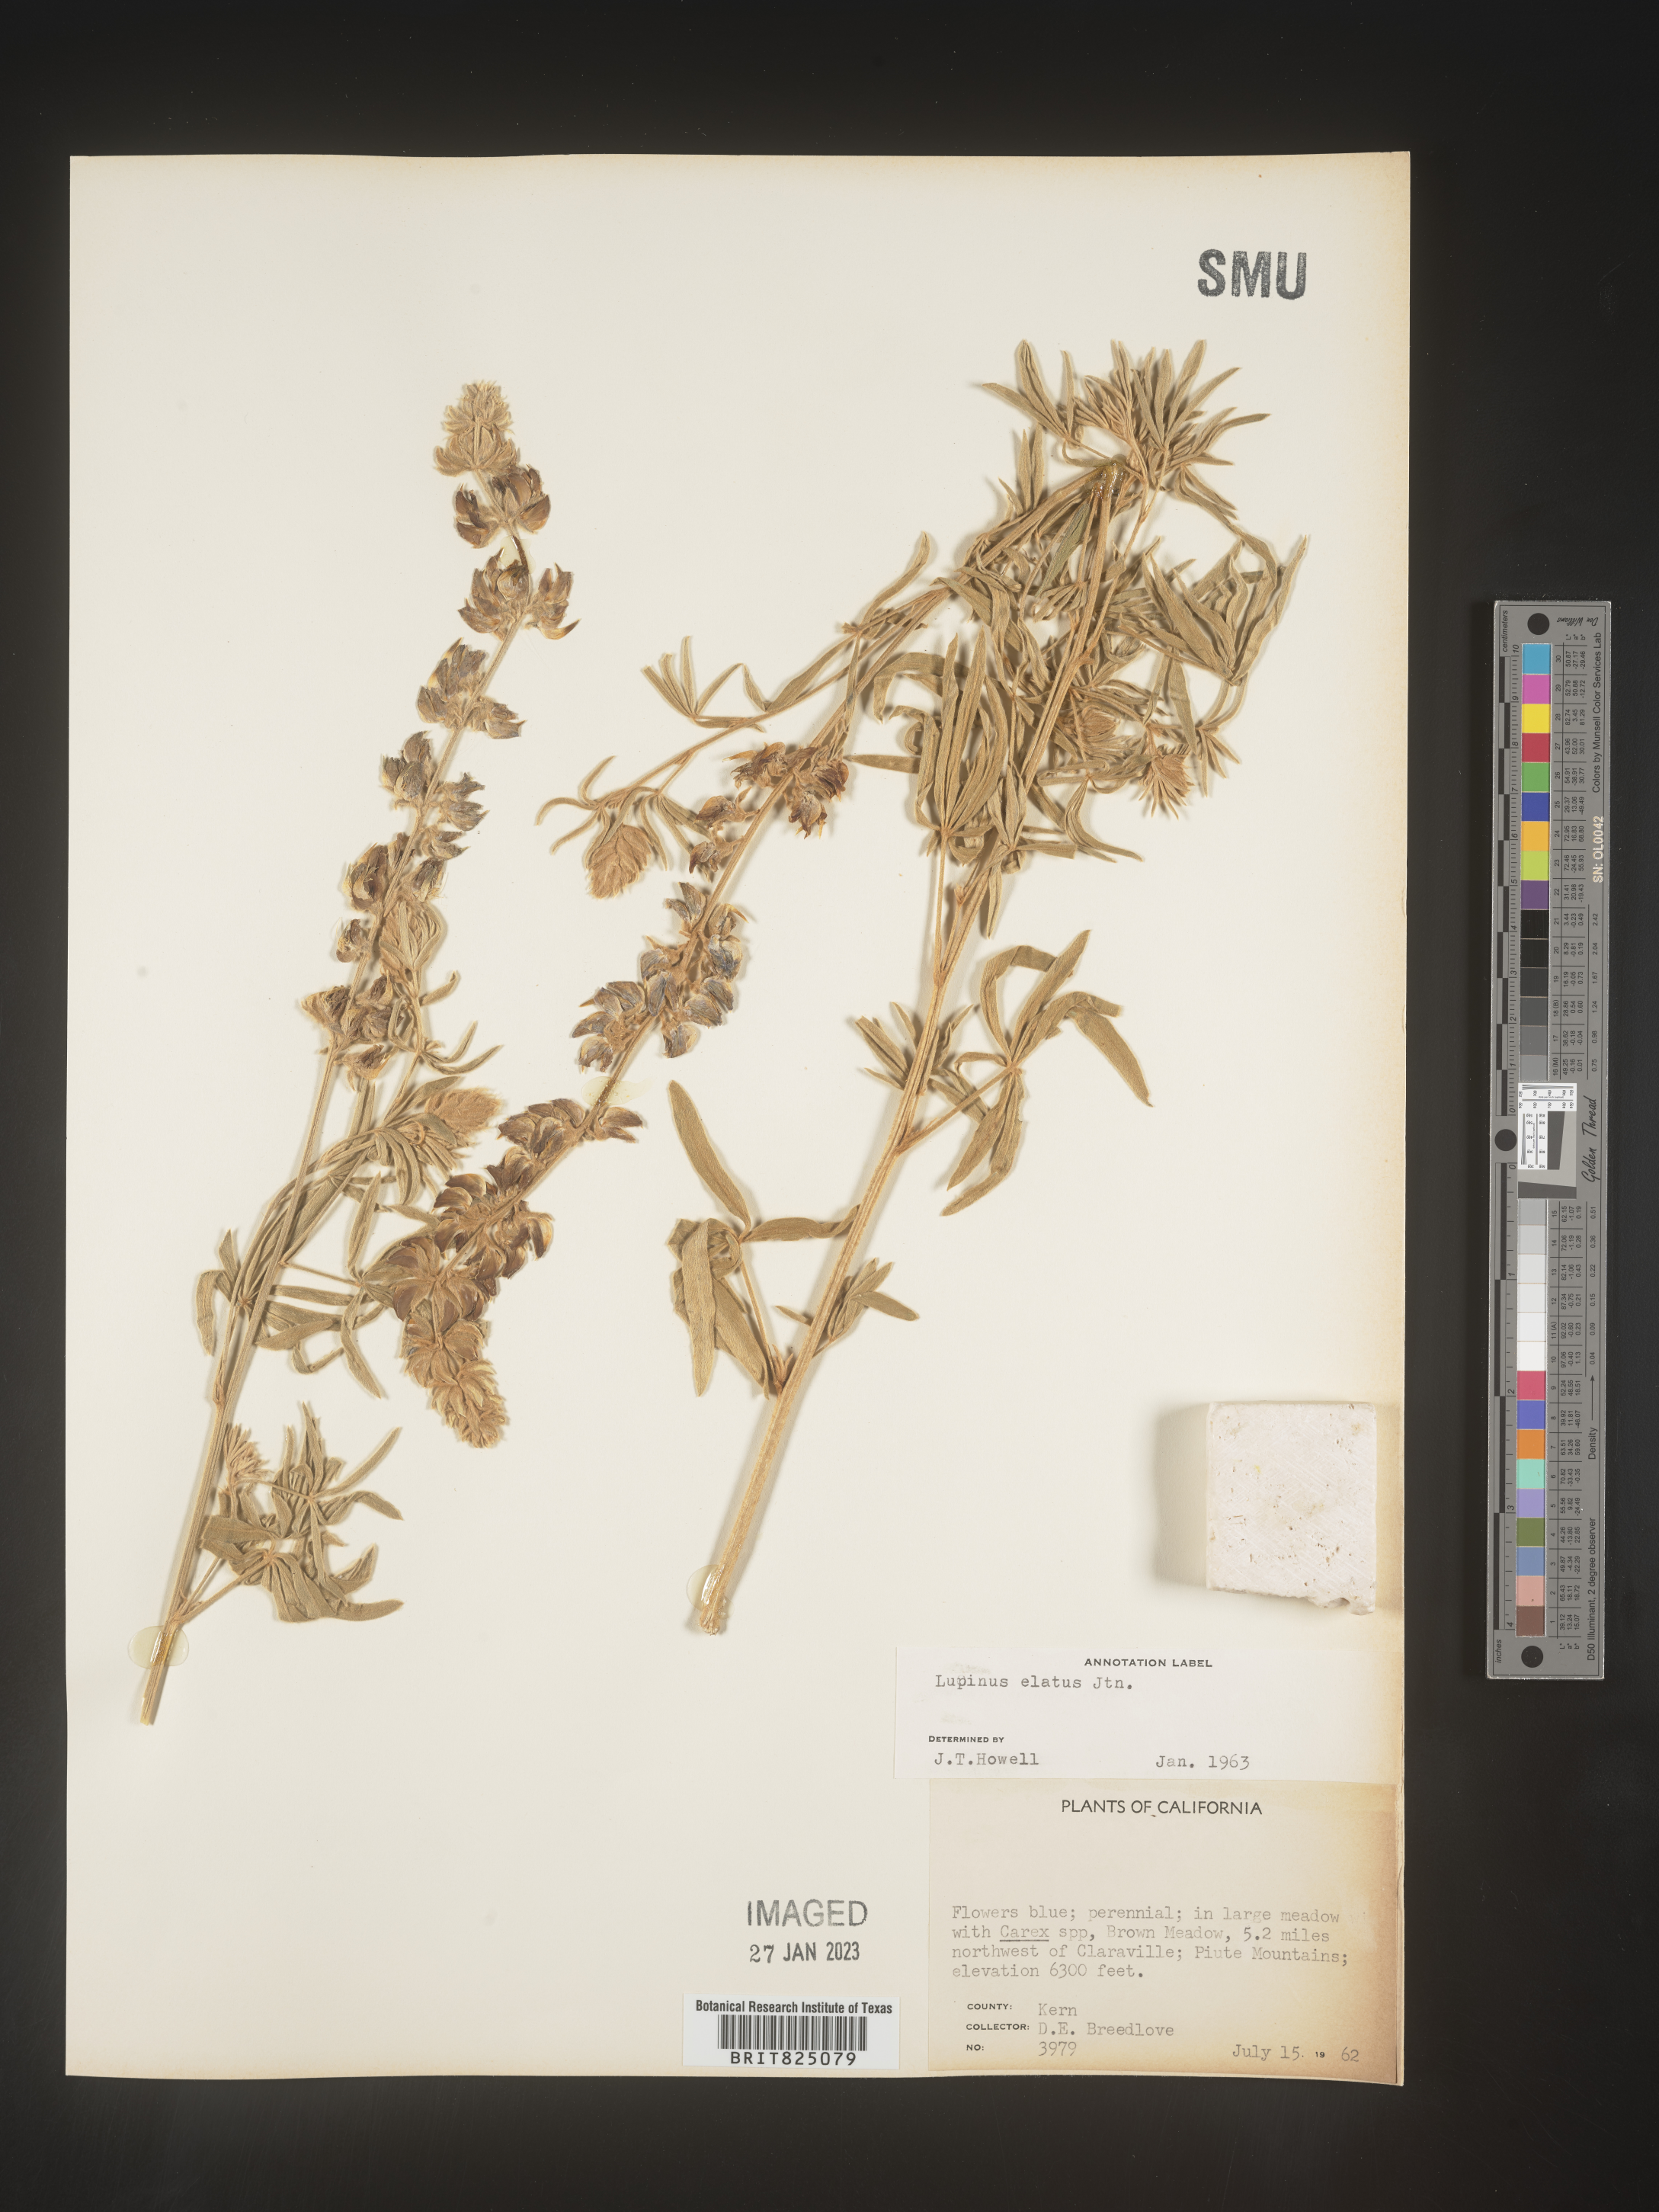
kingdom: Plantae
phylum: Tracheophyta
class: Magnoliopsida
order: Fabales
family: Fabaceae
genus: Lupinus
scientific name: Lupinus
